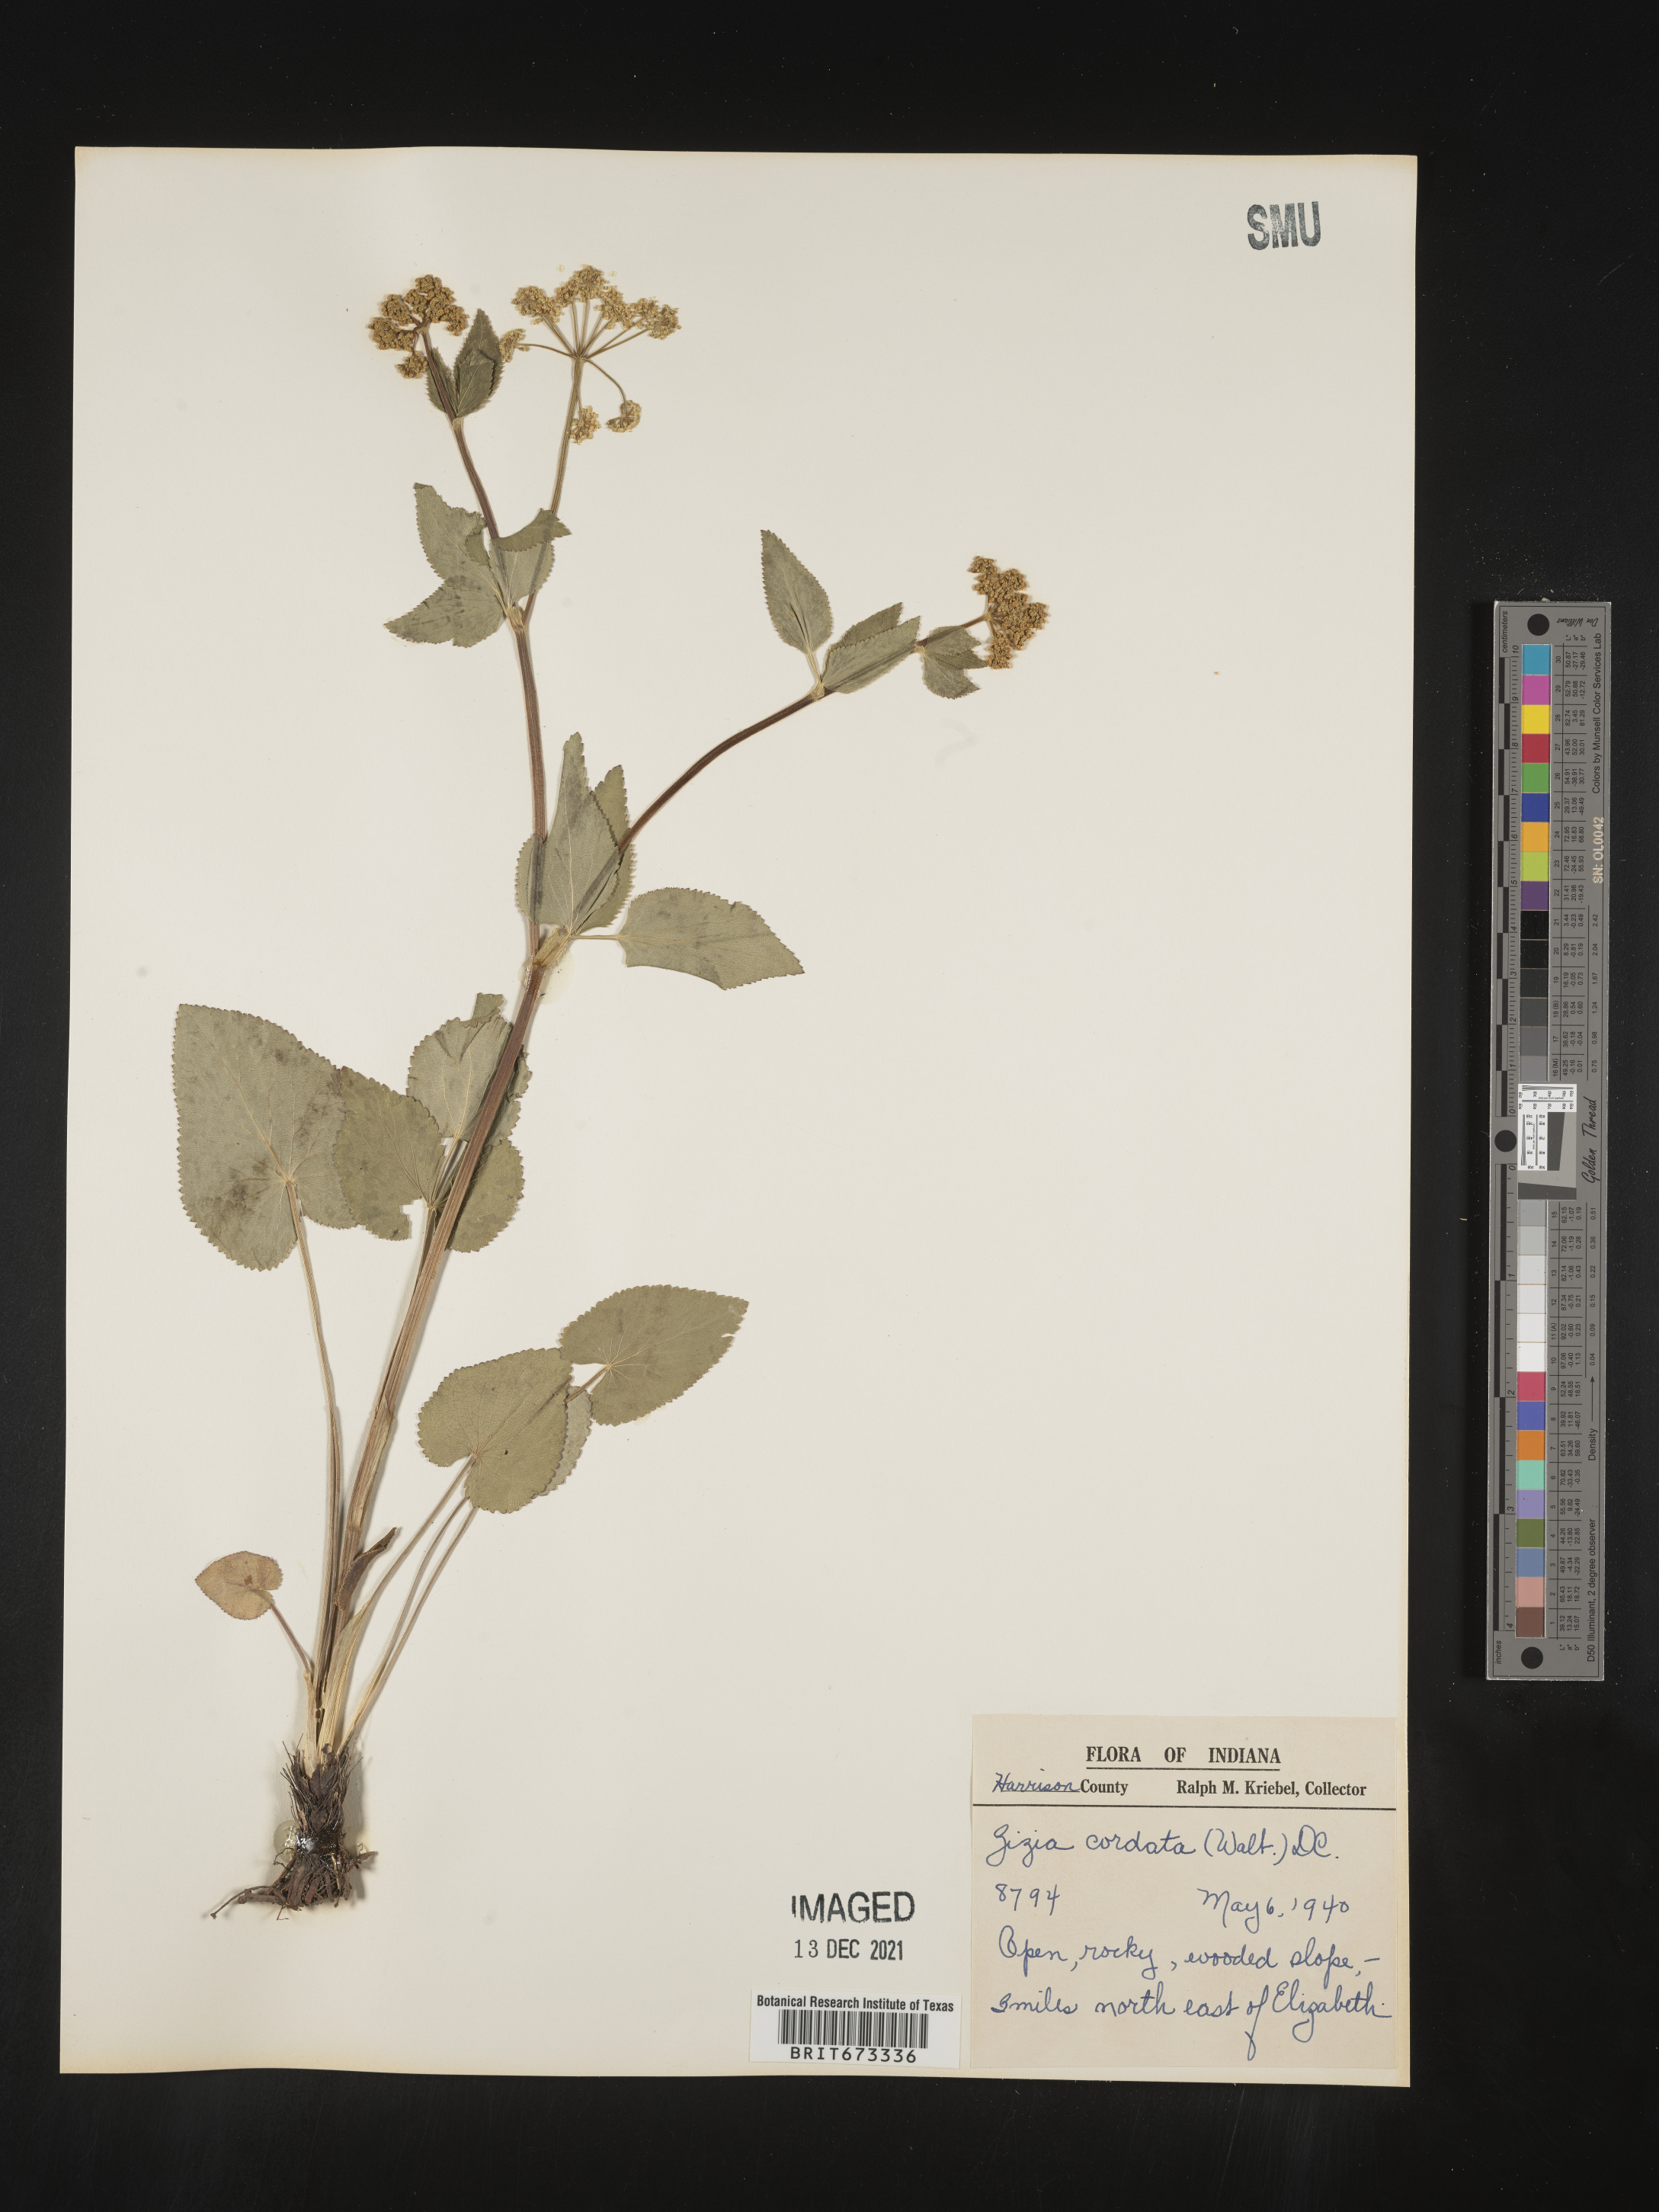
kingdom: Plantae
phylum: Tracheophyta
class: Magnoliopsida
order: Apiales
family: Apiaceae
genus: Zizia
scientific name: Zizia aptera
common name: Heart-leaved alexanders
